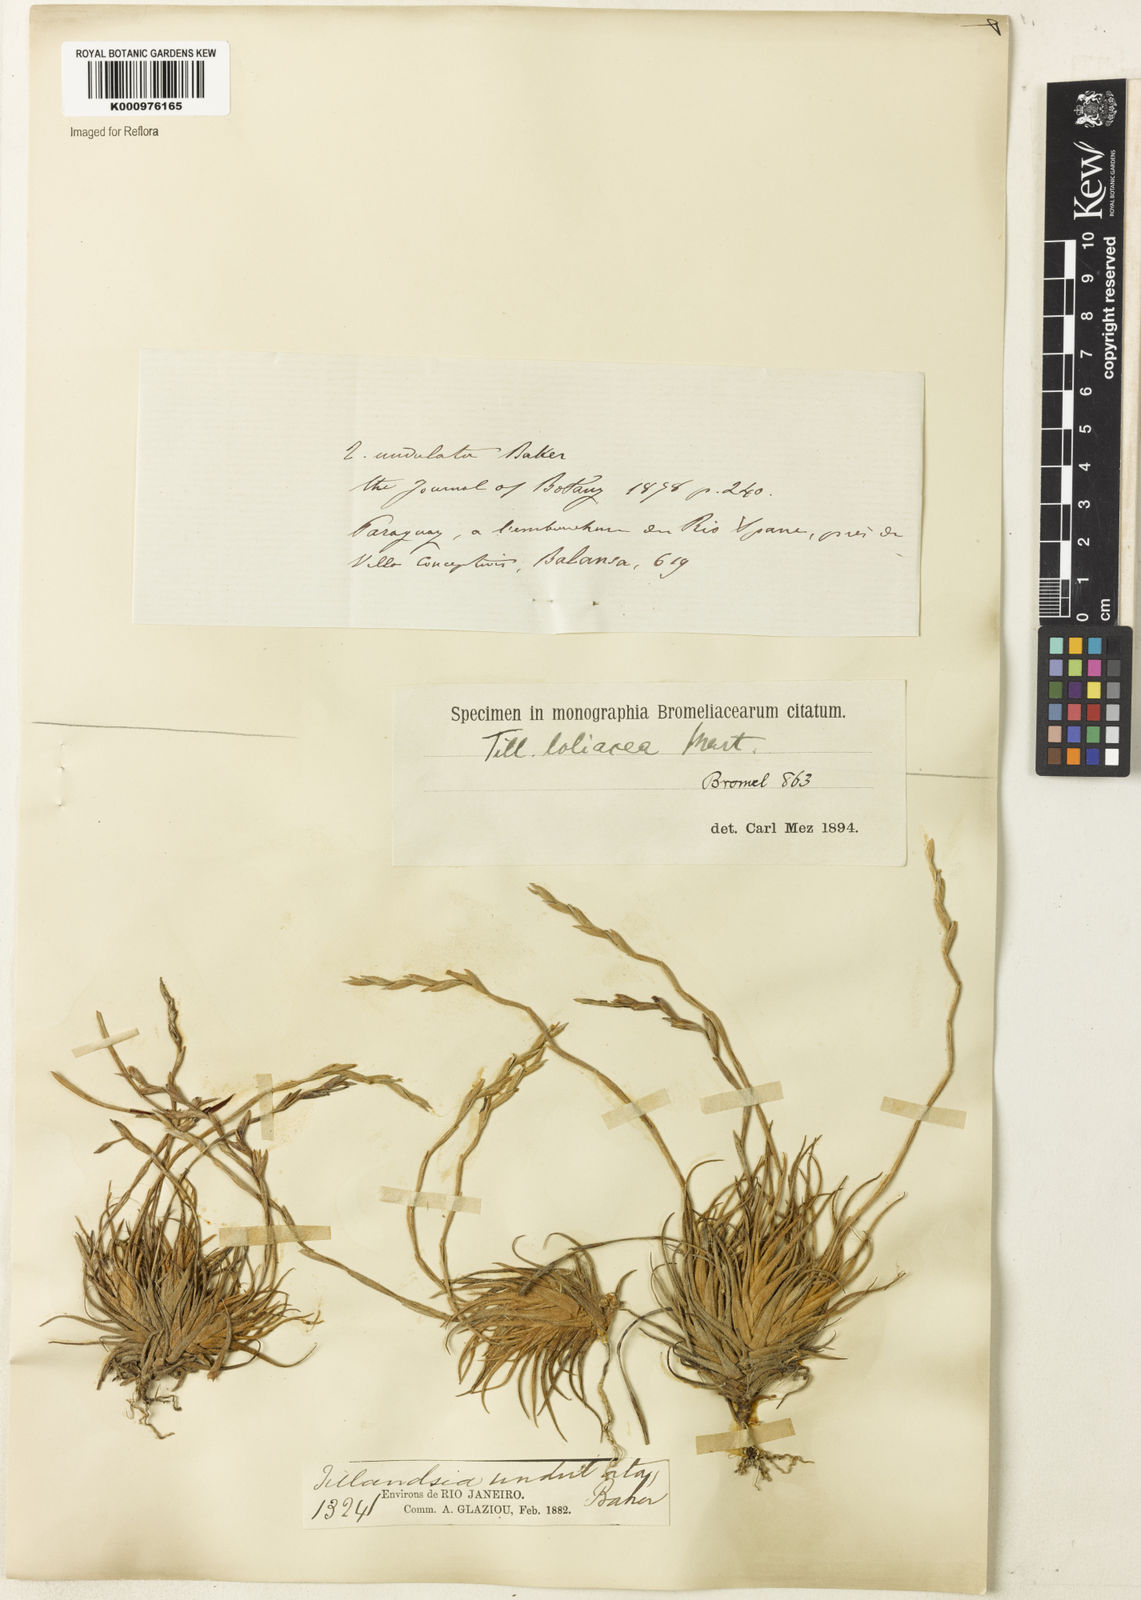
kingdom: Plantae
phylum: Tracheophyta
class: Liliopsida
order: Poales
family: Bromeliaceae
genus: Tillandsia
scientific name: Tillandsia loliacea
